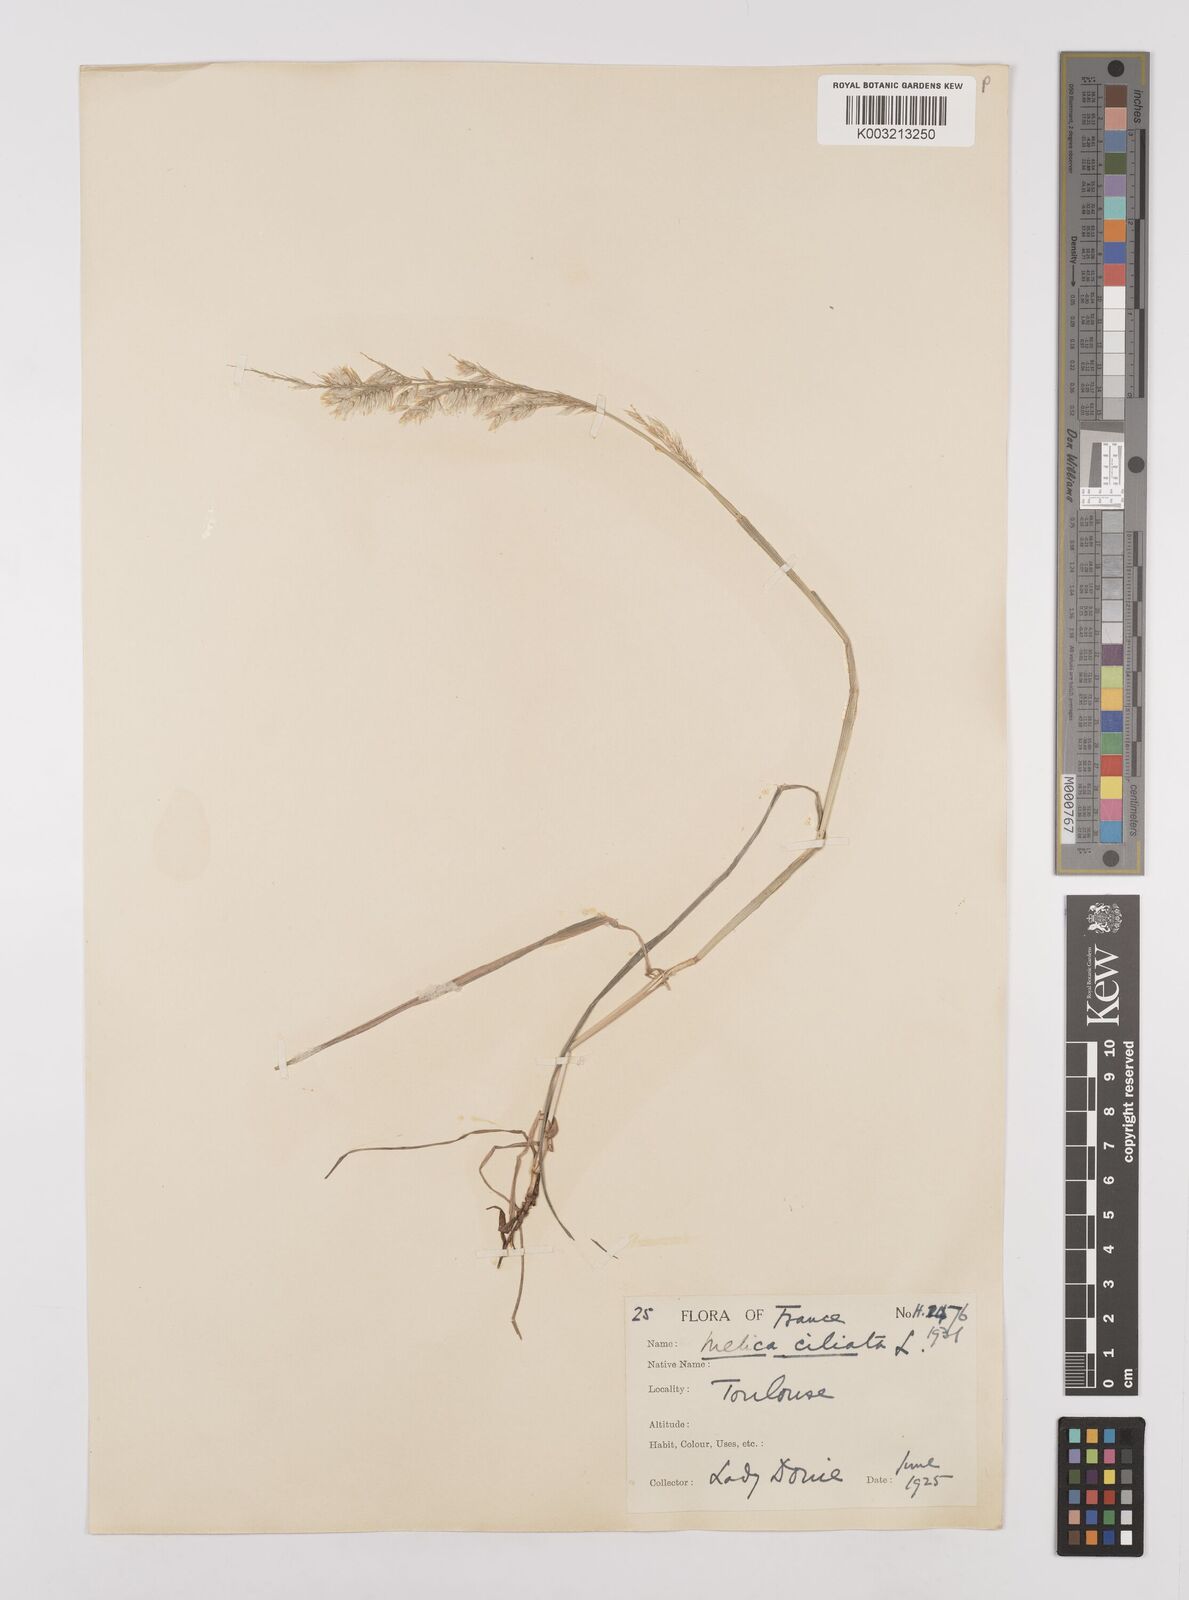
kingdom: Plantae
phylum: Tracheophyta
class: Liliopsida
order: Poales
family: Poaceae
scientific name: Poaceae
